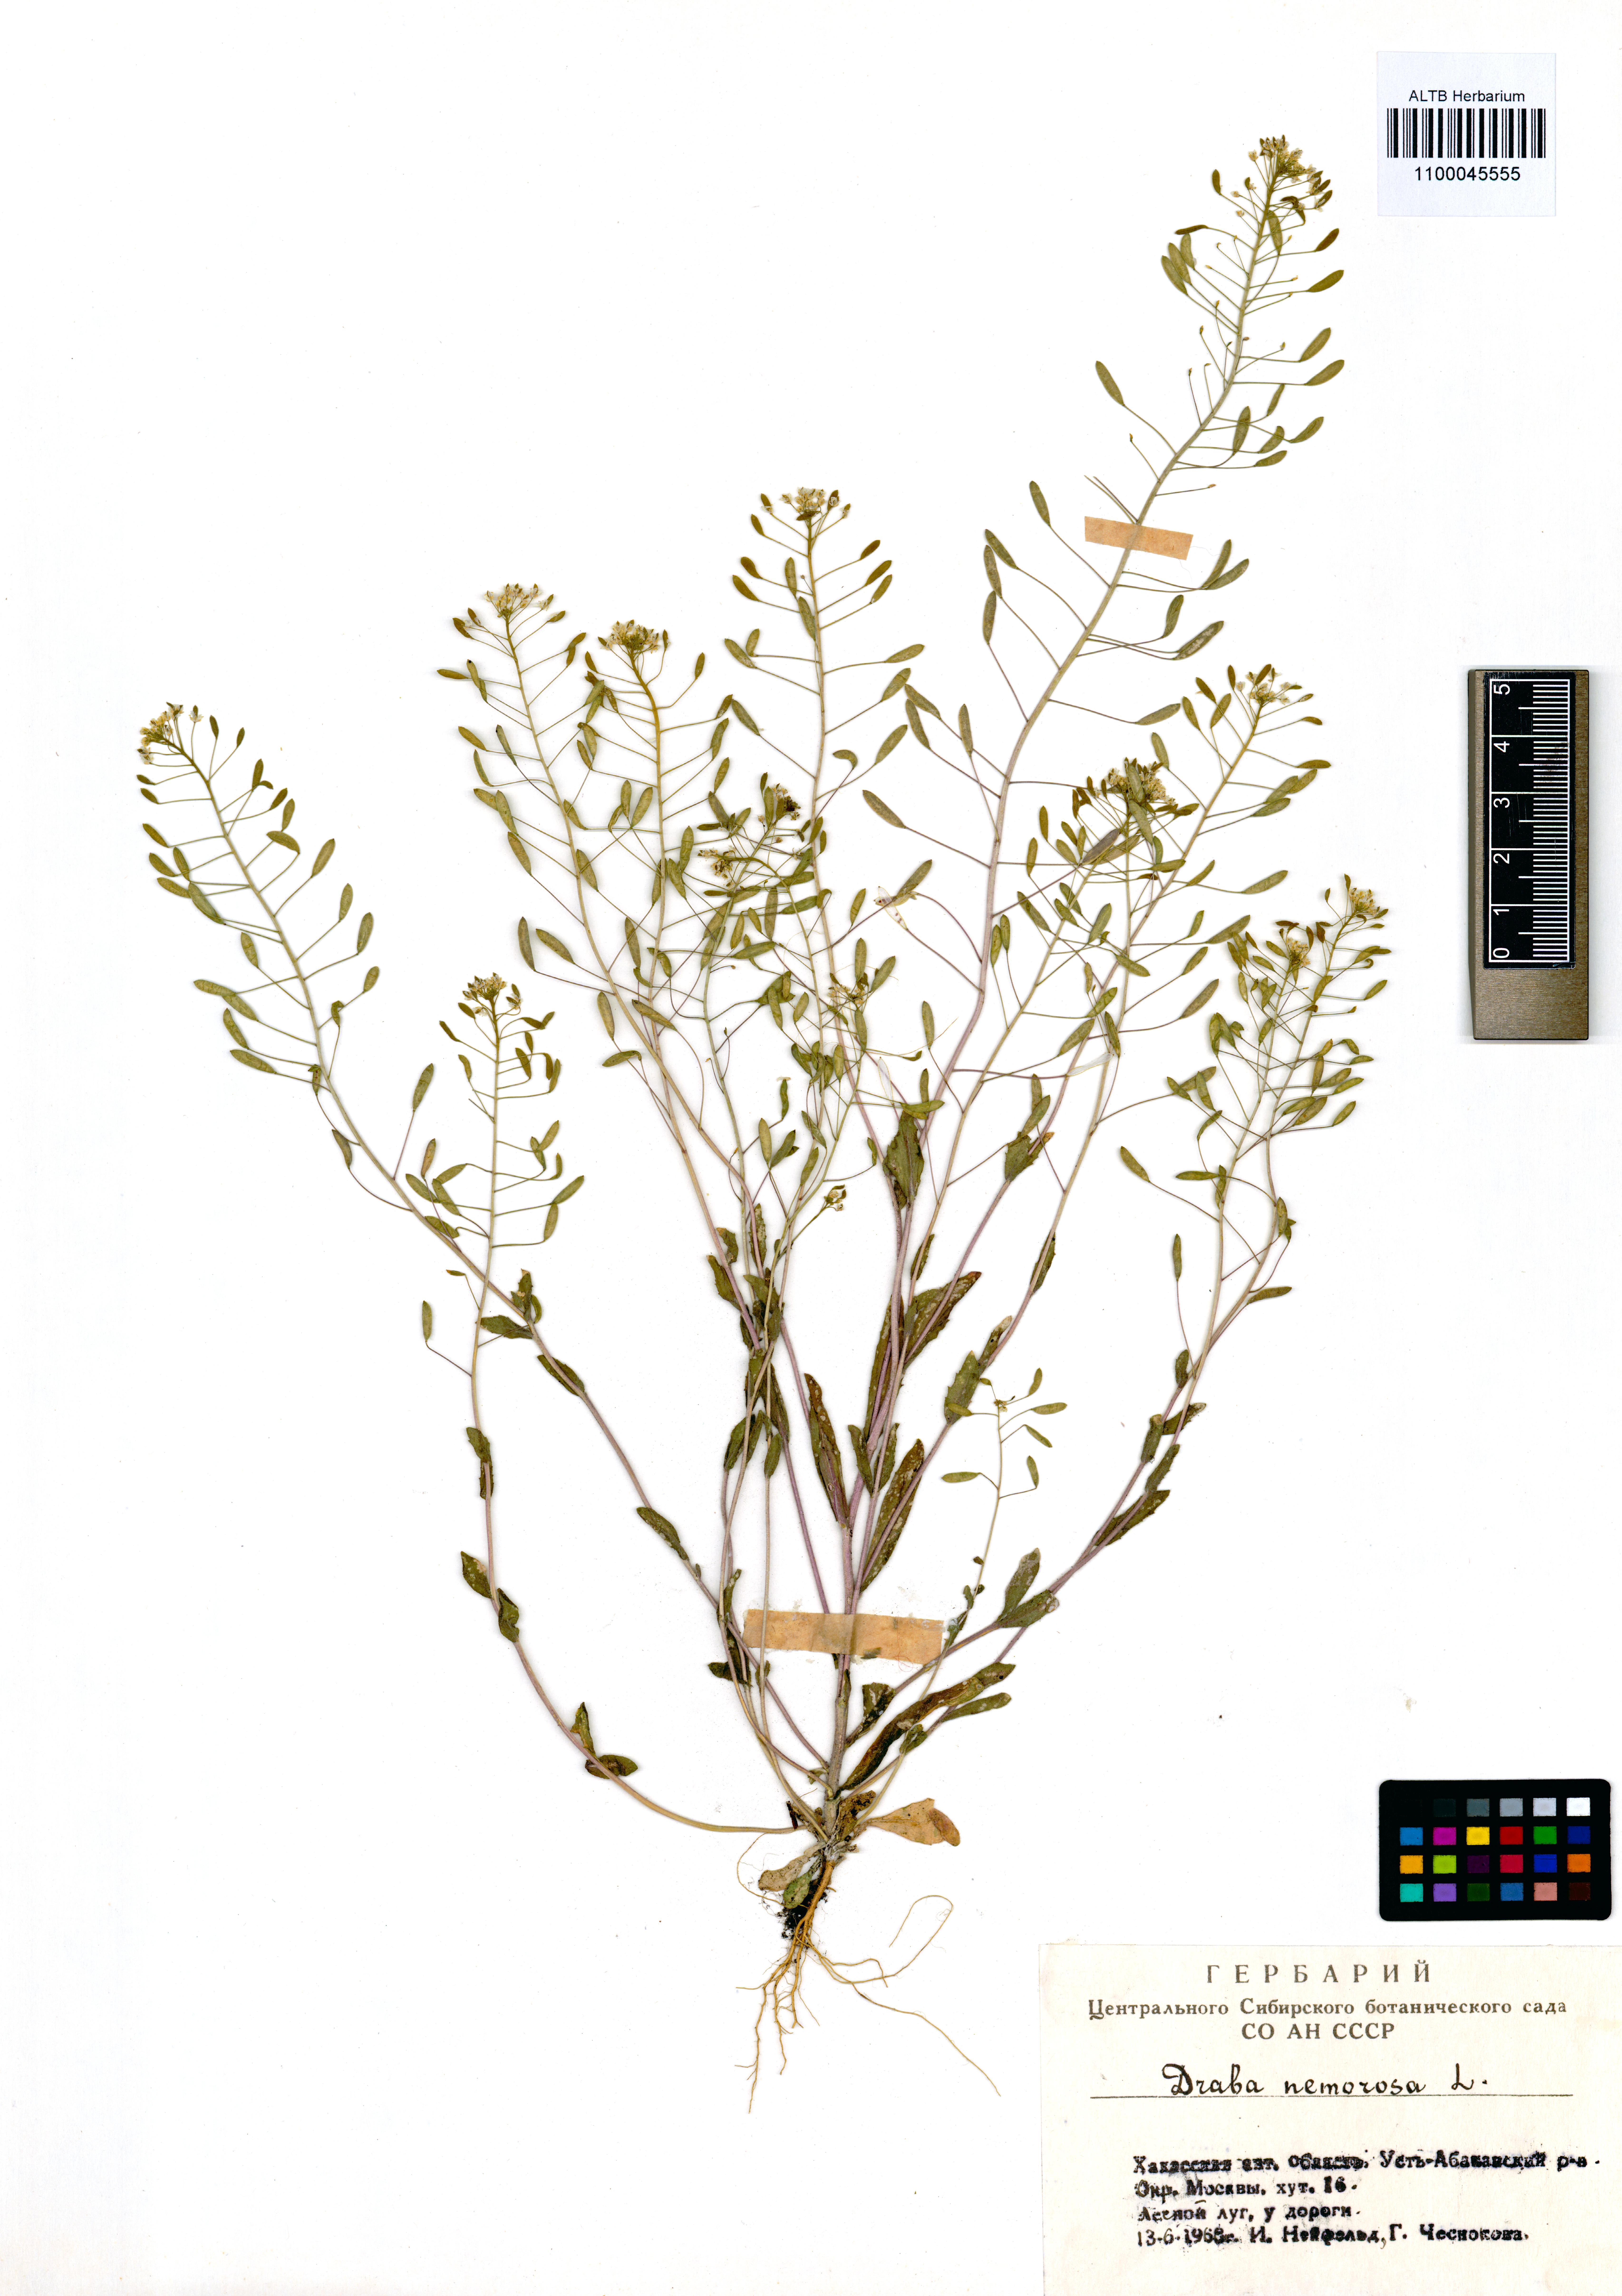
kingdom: Plantae
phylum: Tracheophyta
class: Magnoliopsida
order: Brassicales
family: Brassicaceae
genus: Draba
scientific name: Draba nemorosa
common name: Wood whitlow-grass
